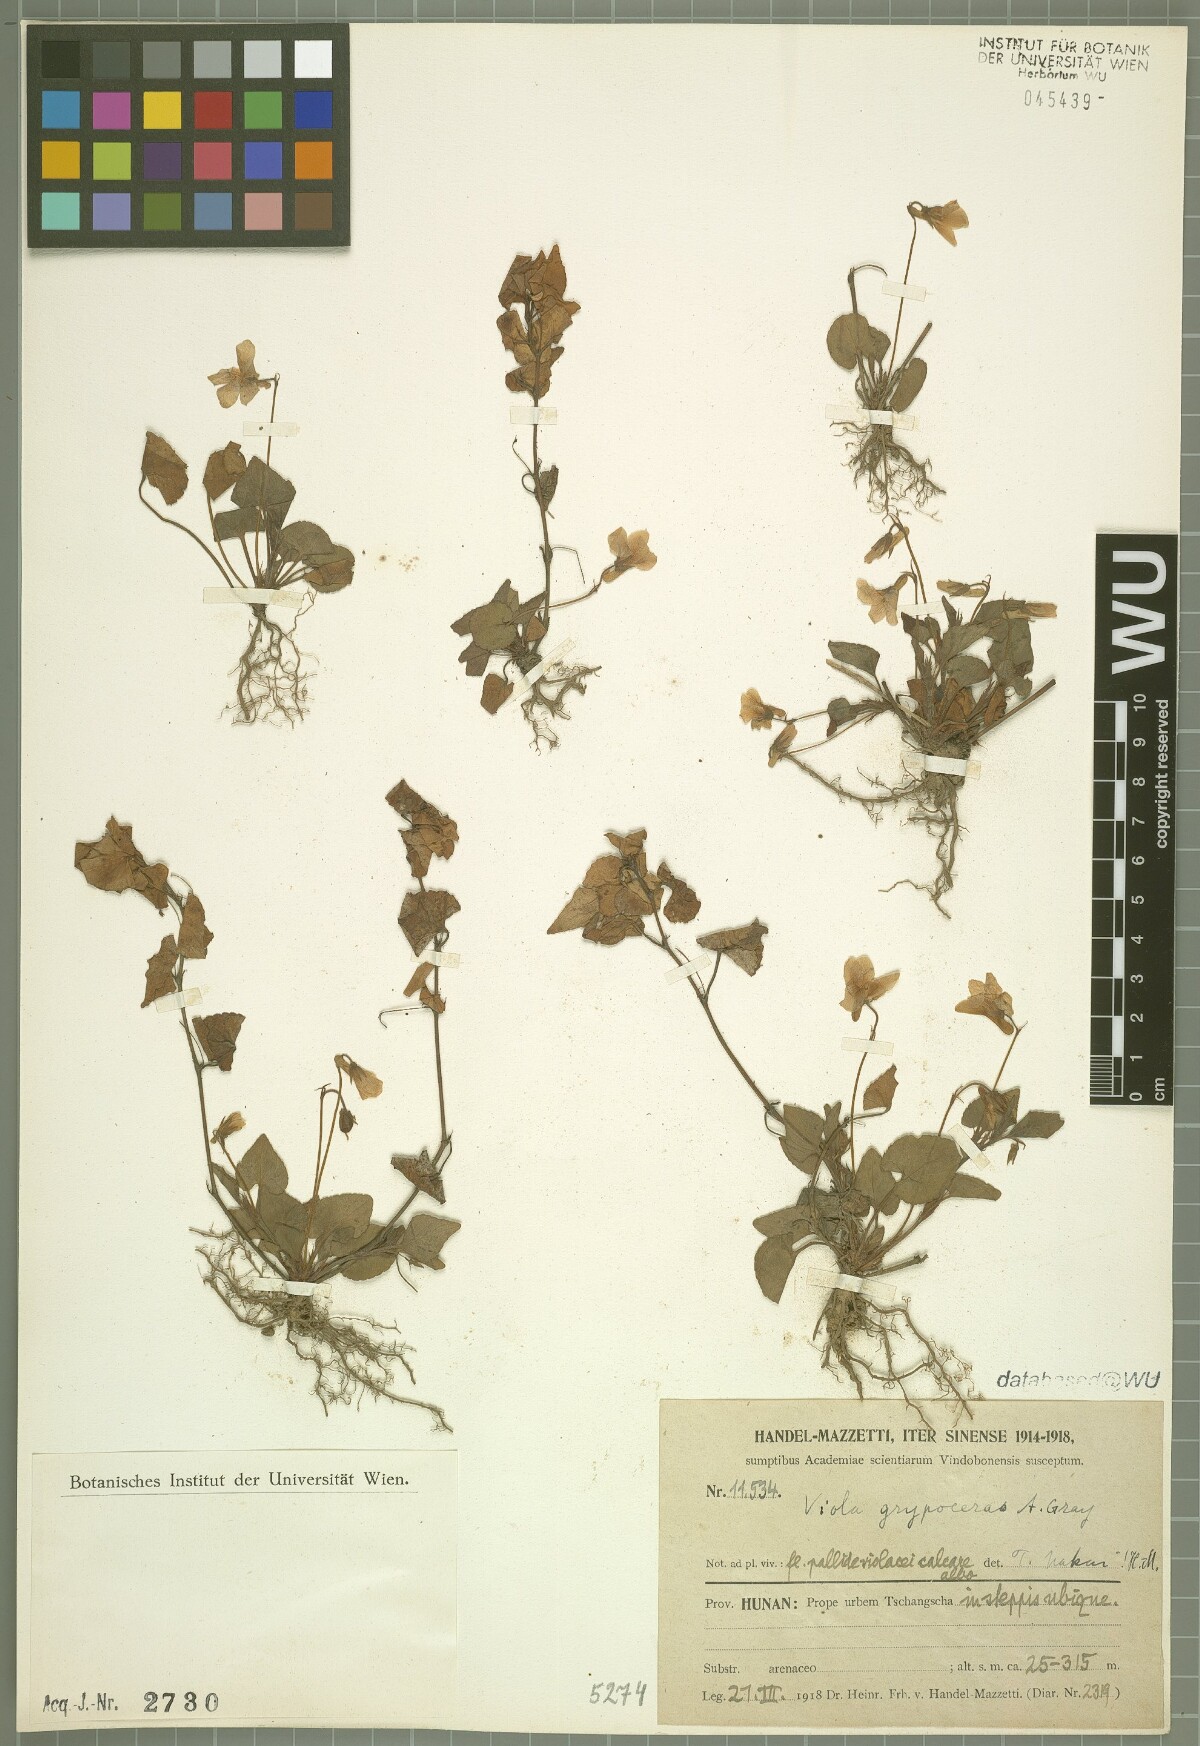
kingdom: Plantae
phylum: Tracheophyta
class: Magnoliopsida
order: Malpighiales
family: Violaceae
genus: Viola
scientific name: Viola grypoceras
